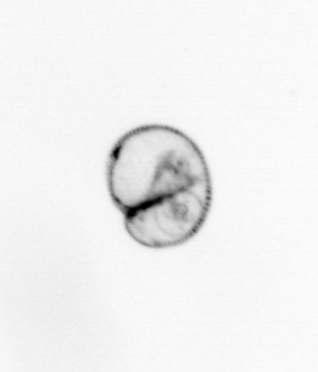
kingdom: Chromista
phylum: Myzozoa
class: Dinophyceae
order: Noctilucales
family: Noctilucaceae
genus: Noctiluca
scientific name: Noctiluca scintillans
